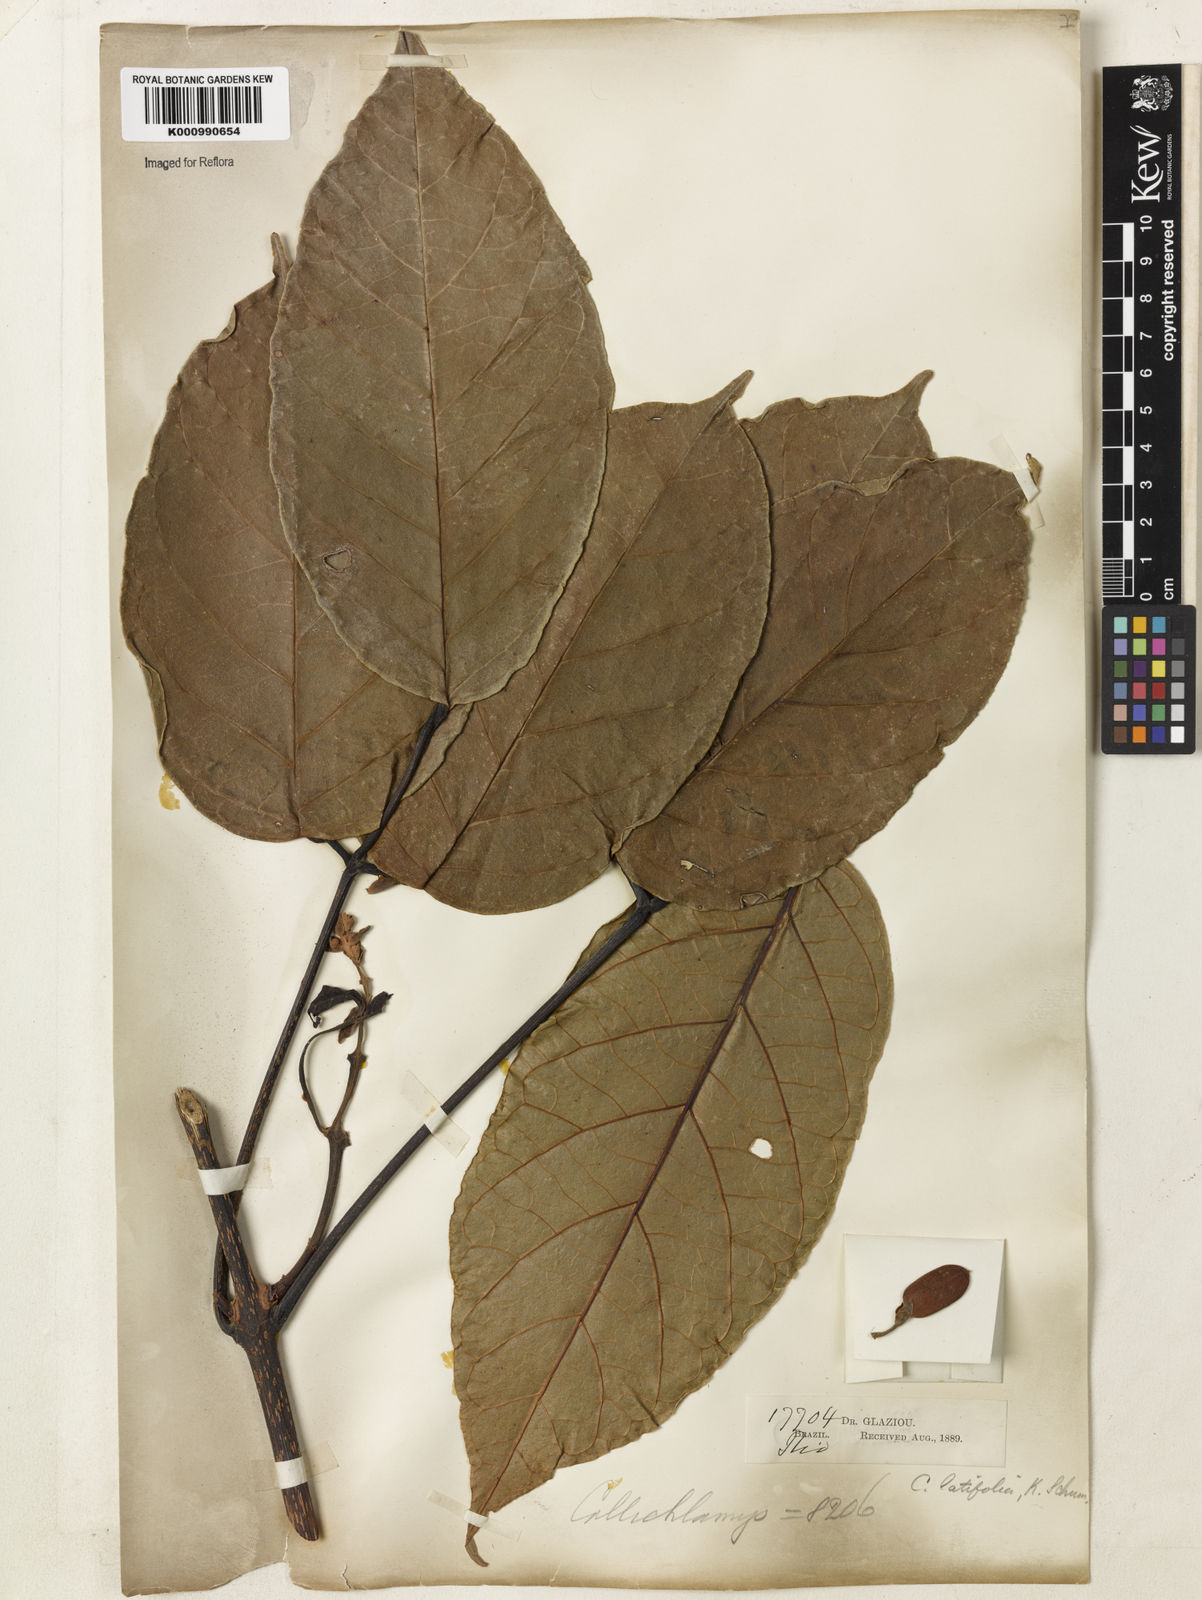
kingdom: Plantae
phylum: Tracheophyta
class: Magnoliopsida
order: Lamiales
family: Bignoniaceae
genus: Callichlamys
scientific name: Callichlamys latifolia
